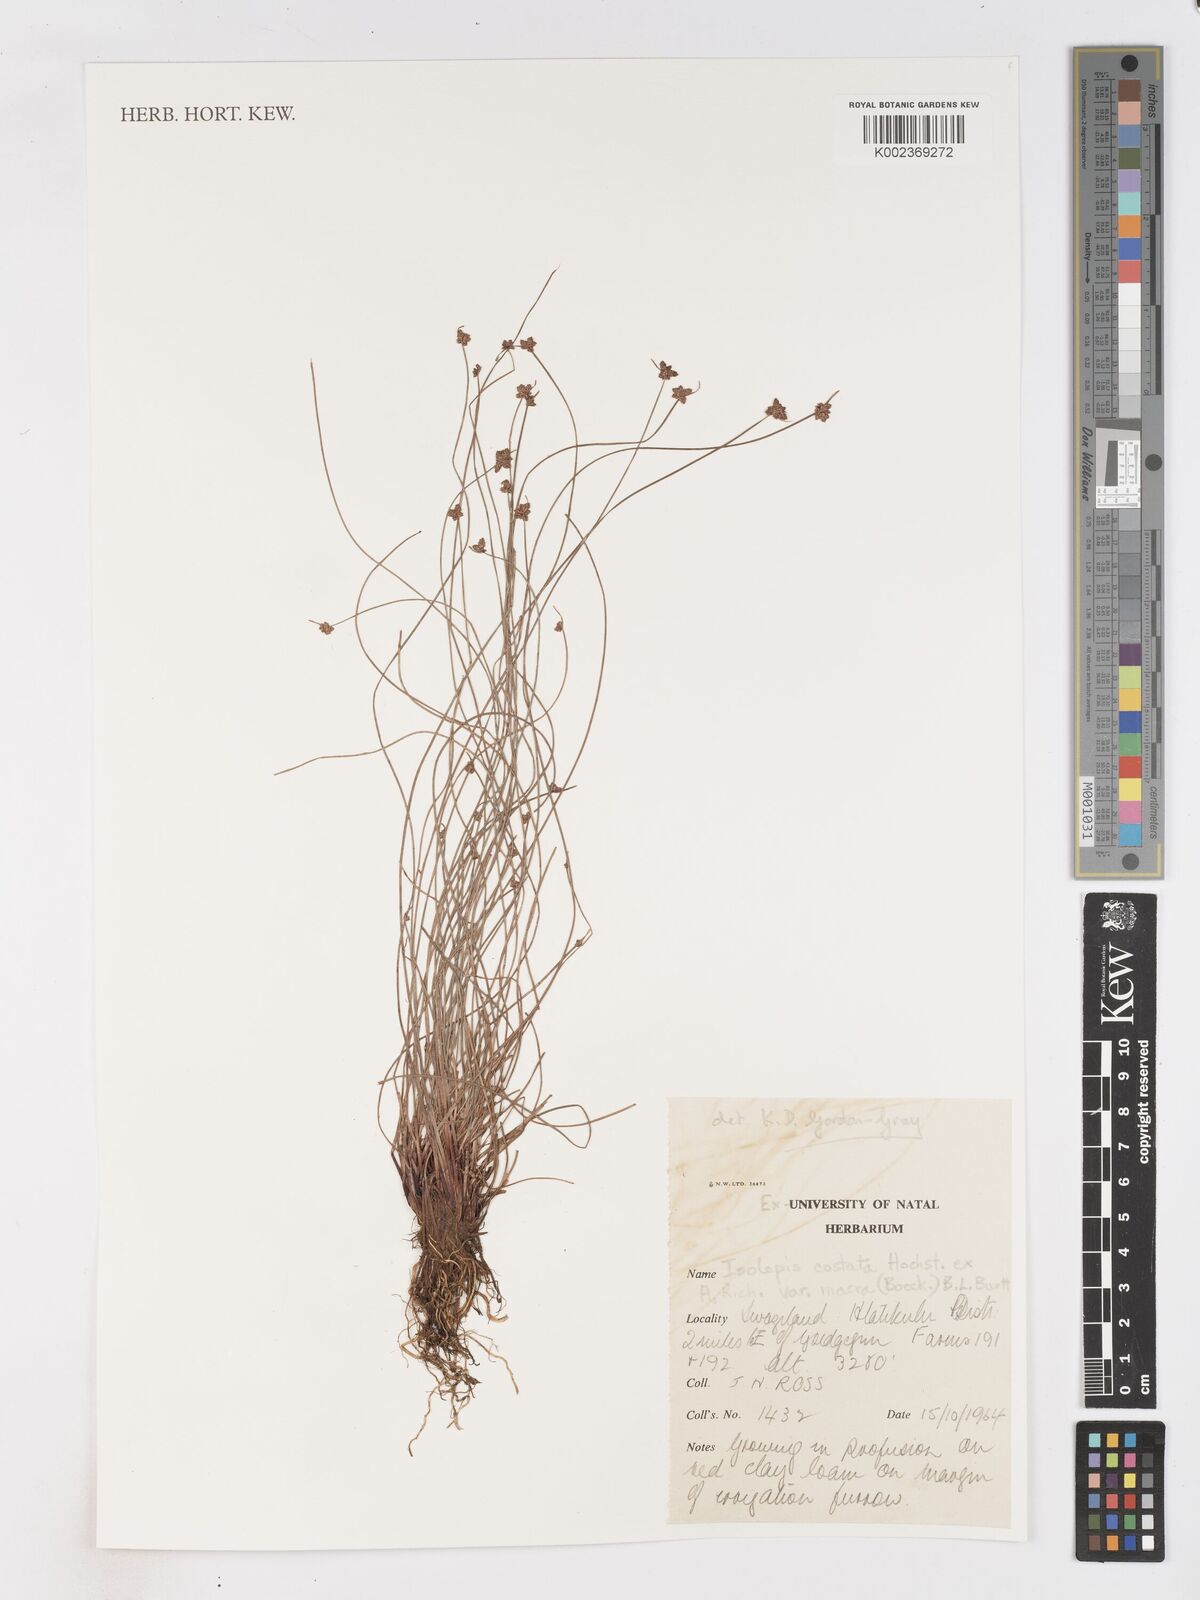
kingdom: Plantae
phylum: Tracheophyta
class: Liliopsida
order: Poales
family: Cyperaceae
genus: Isolepis
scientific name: Isolepis costata
